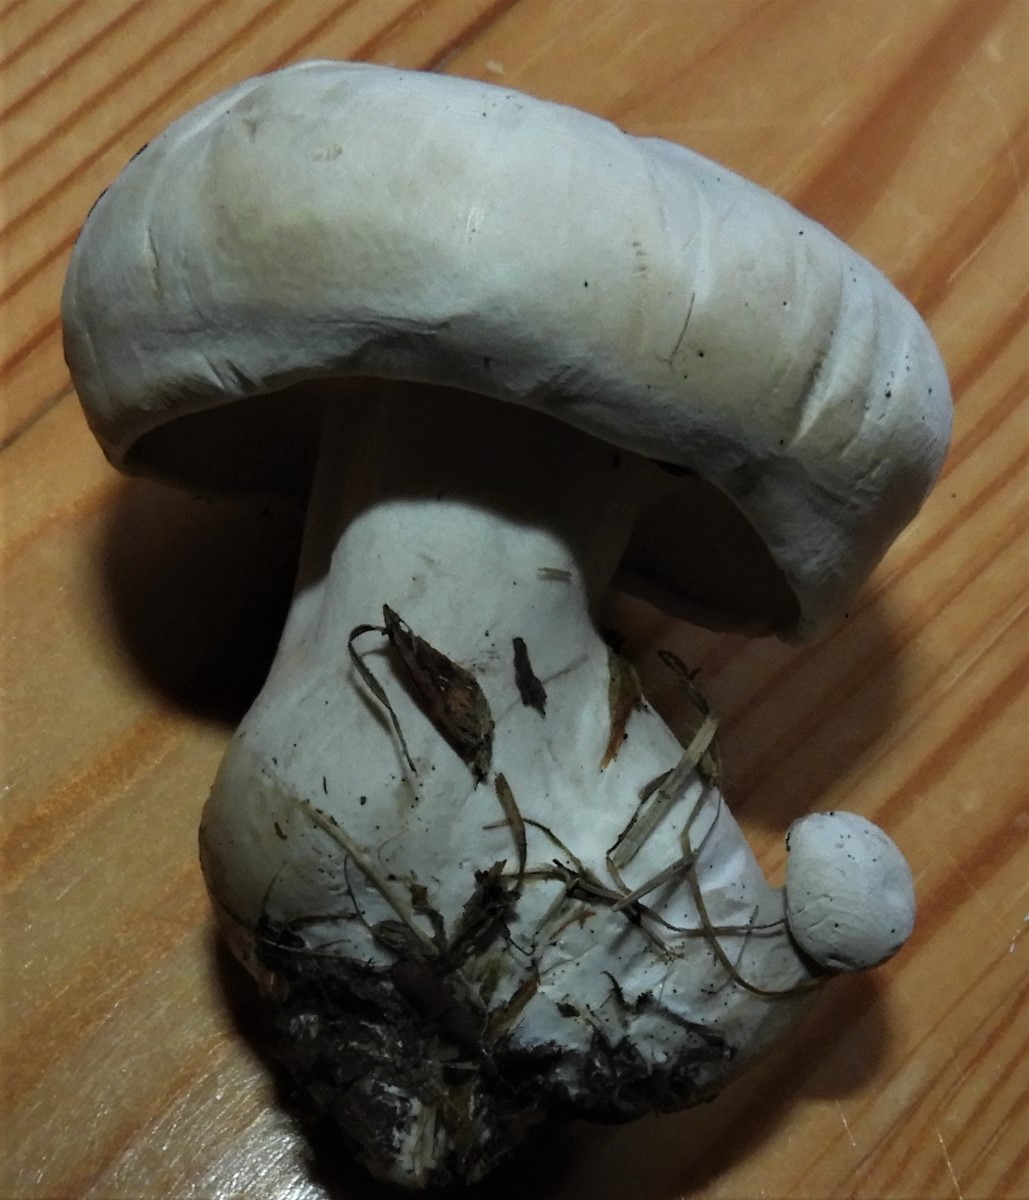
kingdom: Fungi
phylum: Basidiomycota
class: Agaricomycetes
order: Agaricales
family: Entolomataceae
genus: Clitopilus
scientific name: Clitopilus prunulus
